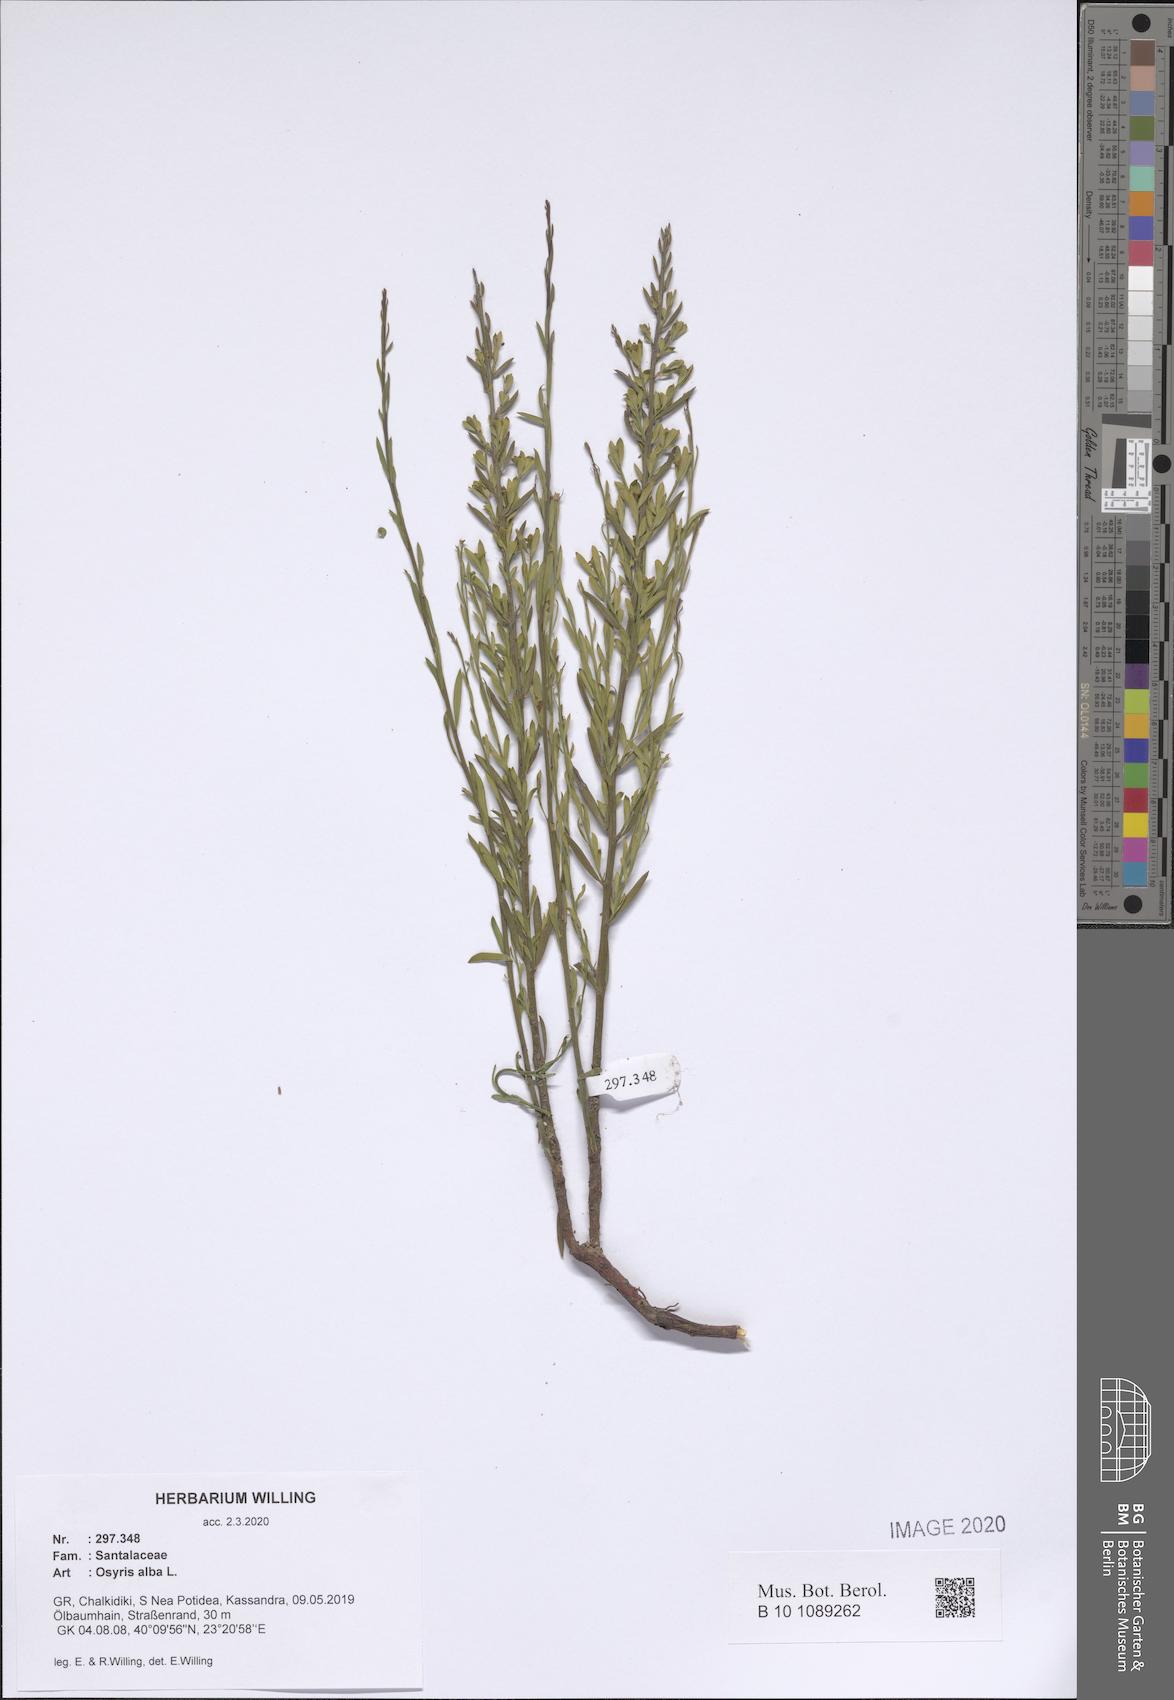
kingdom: Plantae
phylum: Tracheophyta
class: Magnoliopsida
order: Santalales
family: Santalaceae
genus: Osyris
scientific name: Osyris alba
